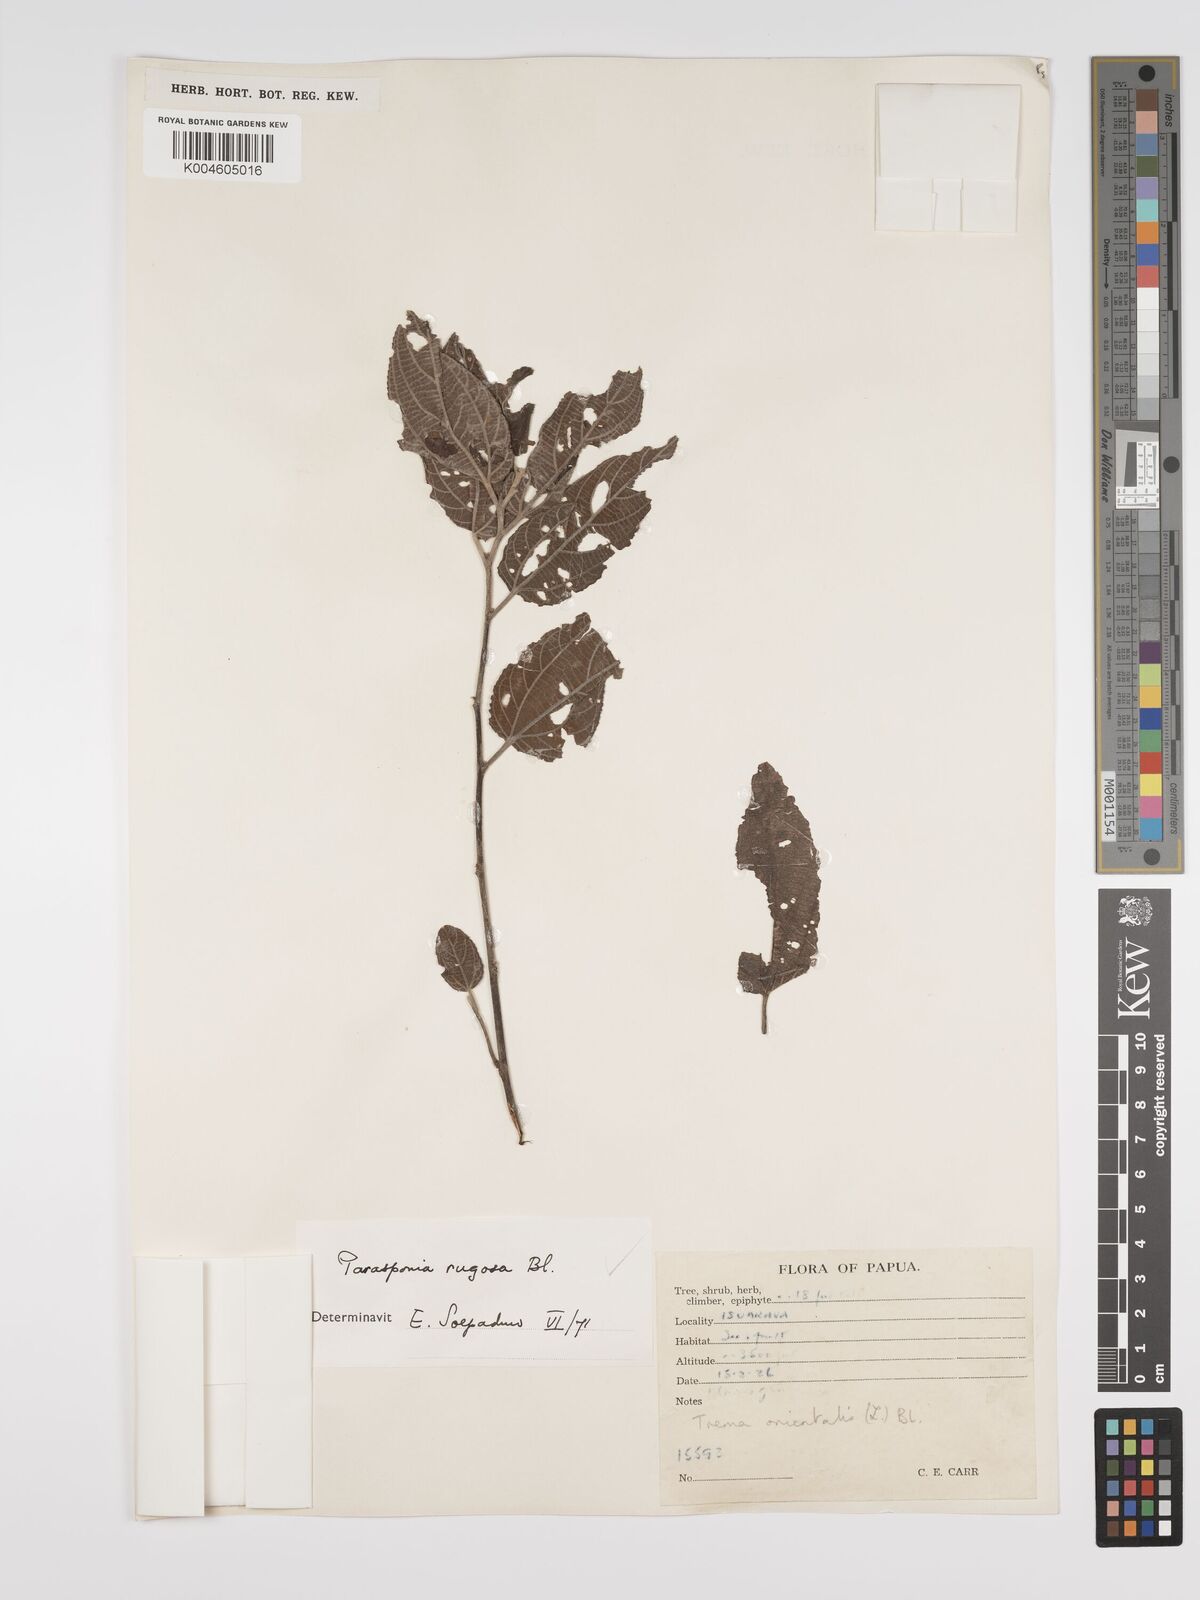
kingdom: Plantae
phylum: Tracheophyta
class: Magnoliopsida
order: Rosales
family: Cannabaceae
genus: Trema
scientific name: Trema eurhynchum
